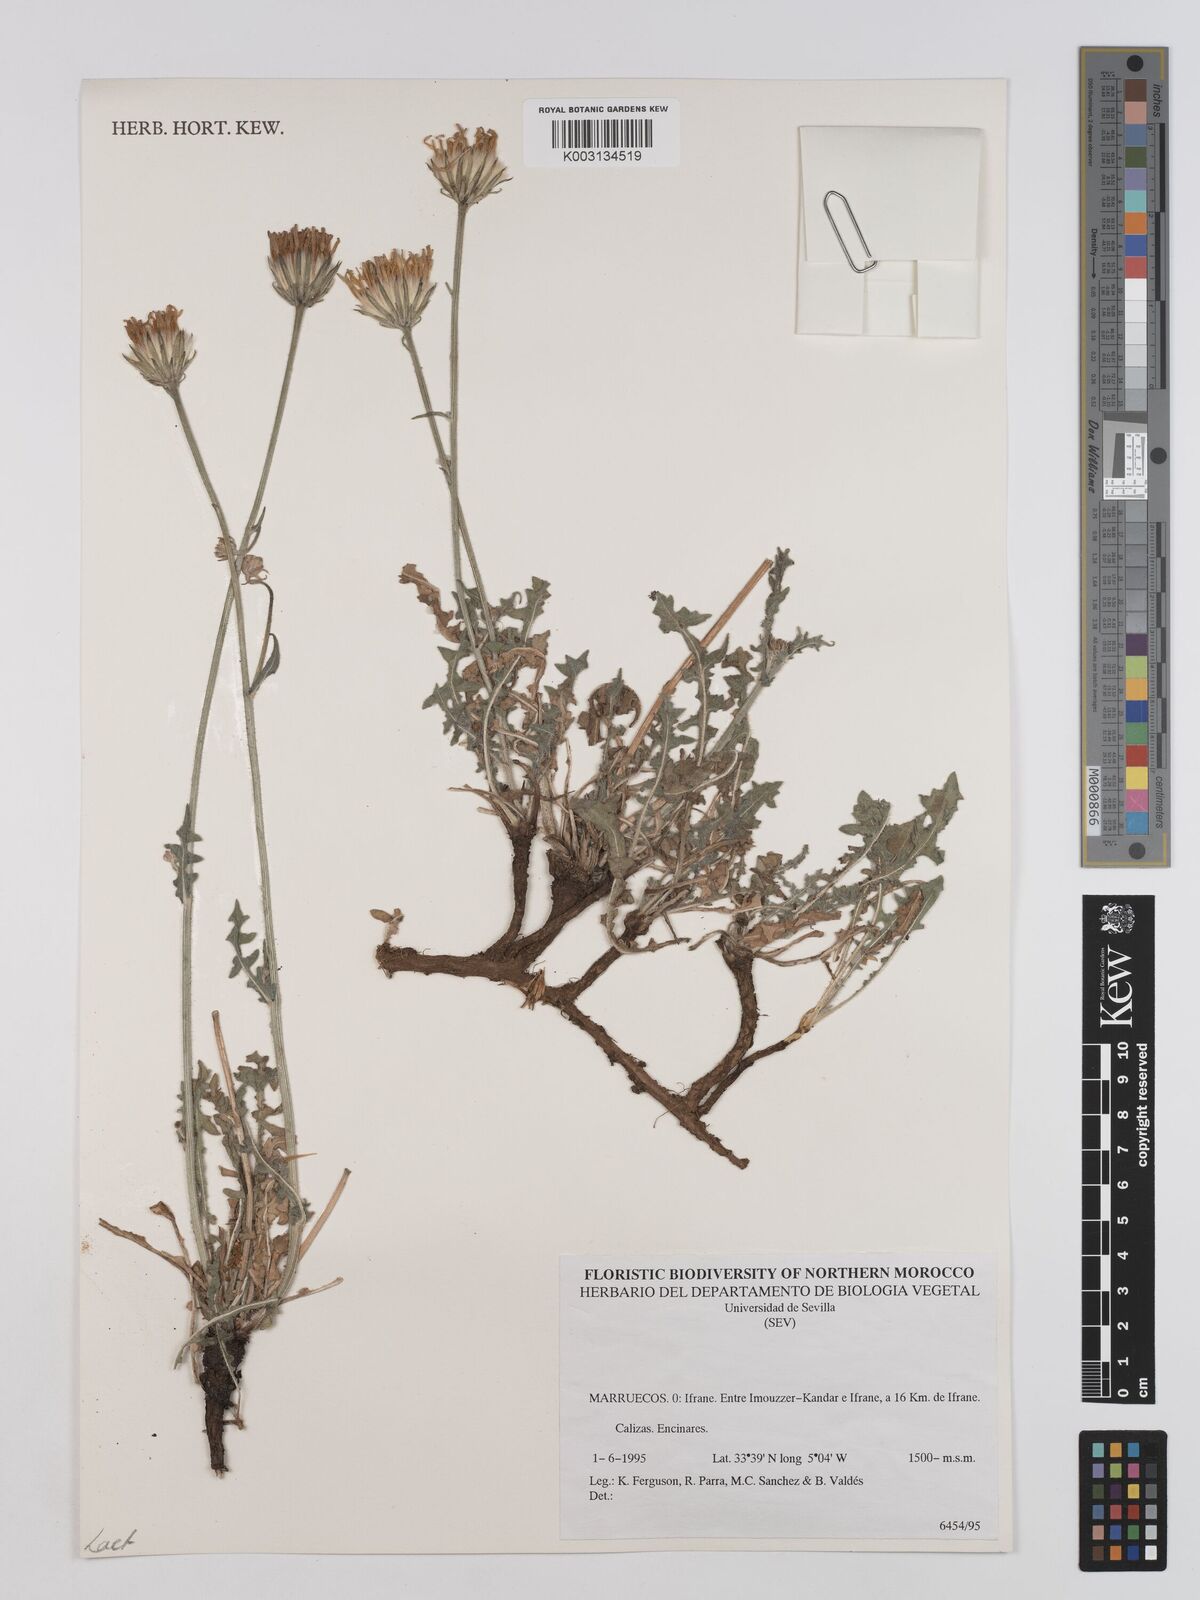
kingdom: Plantae
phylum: Tracheophyta
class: Magnoliopsida
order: Asterales
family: Asteraceae
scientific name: Asteraceae
